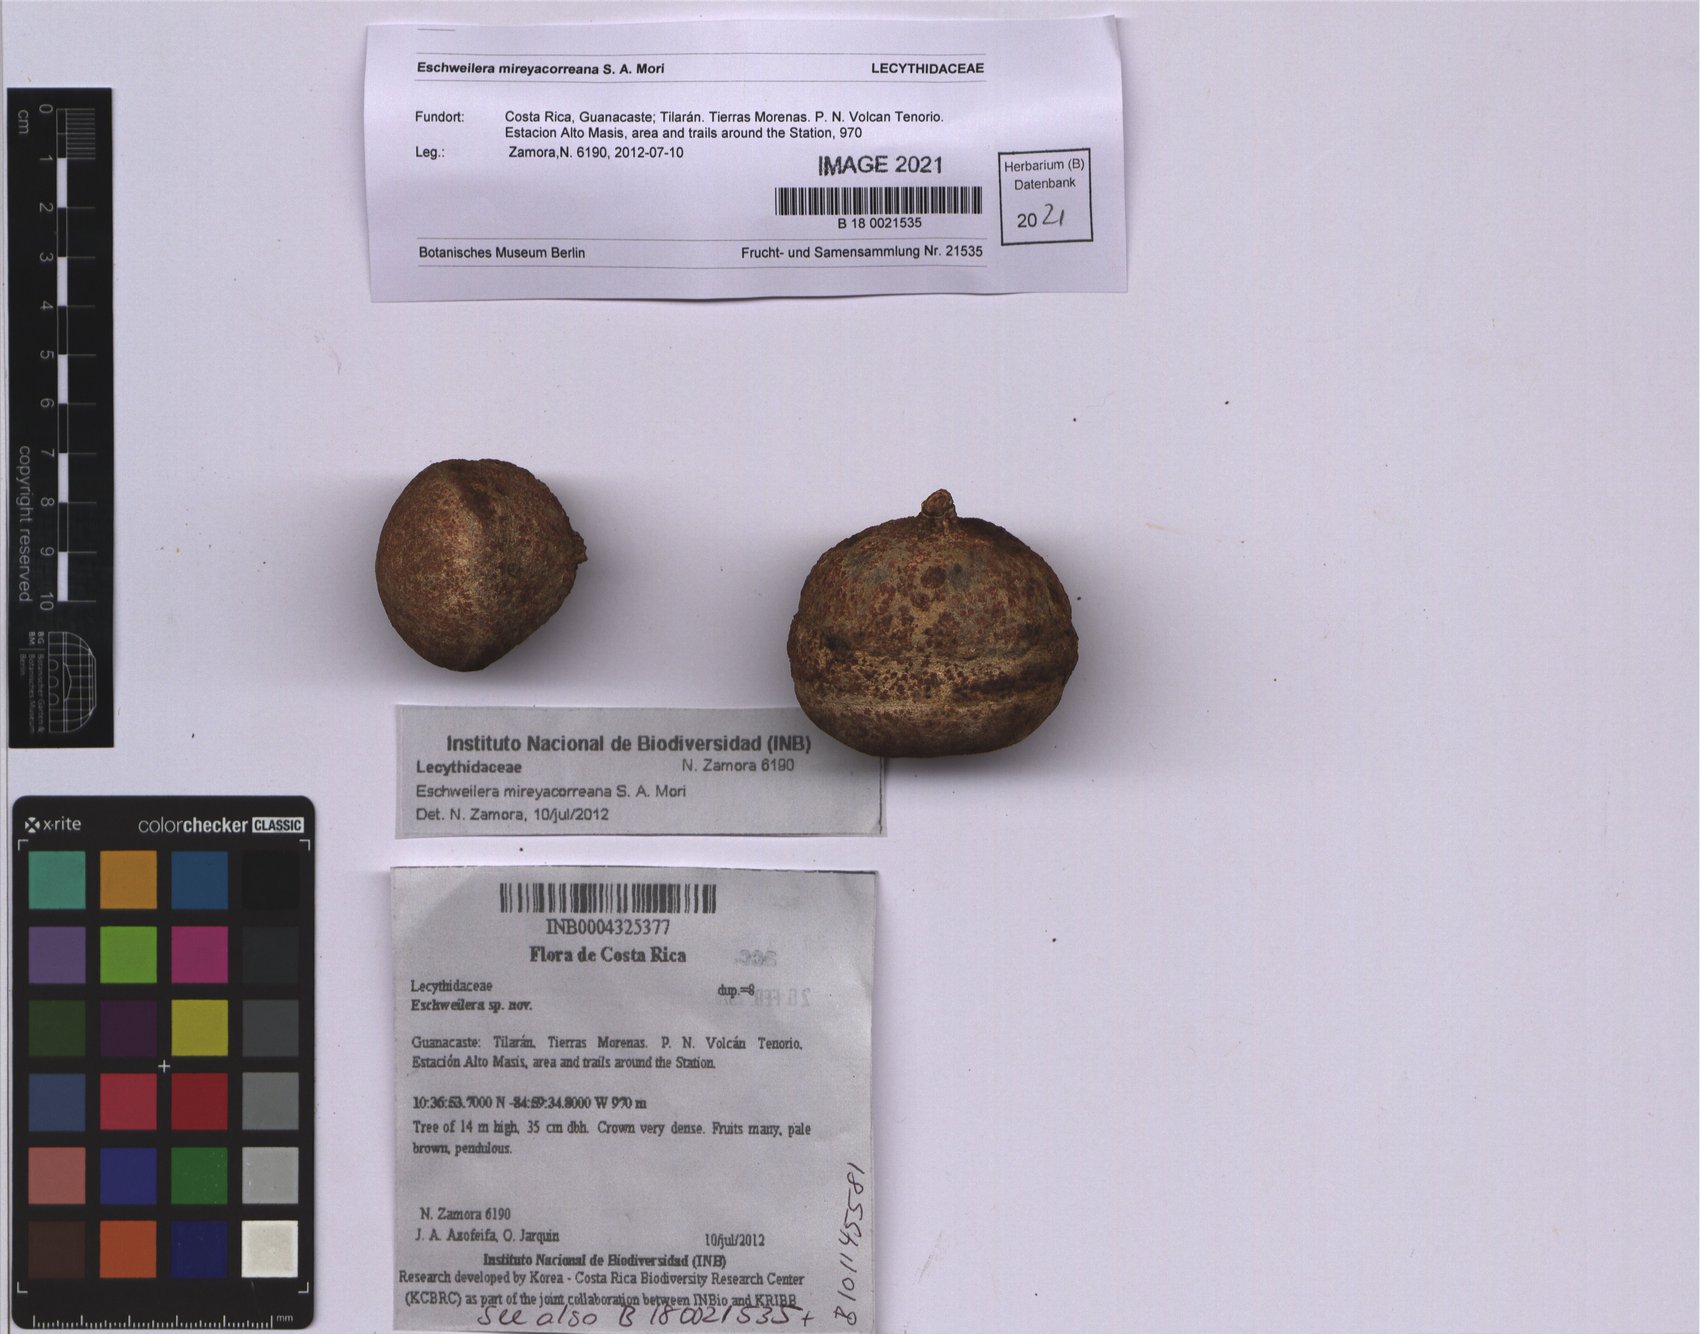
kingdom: Plantae
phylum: Tracheophyta
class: Magnoliopsida
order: Ericales
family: Lecythidaceae
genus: Eschweilera
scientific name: Eschweilera
